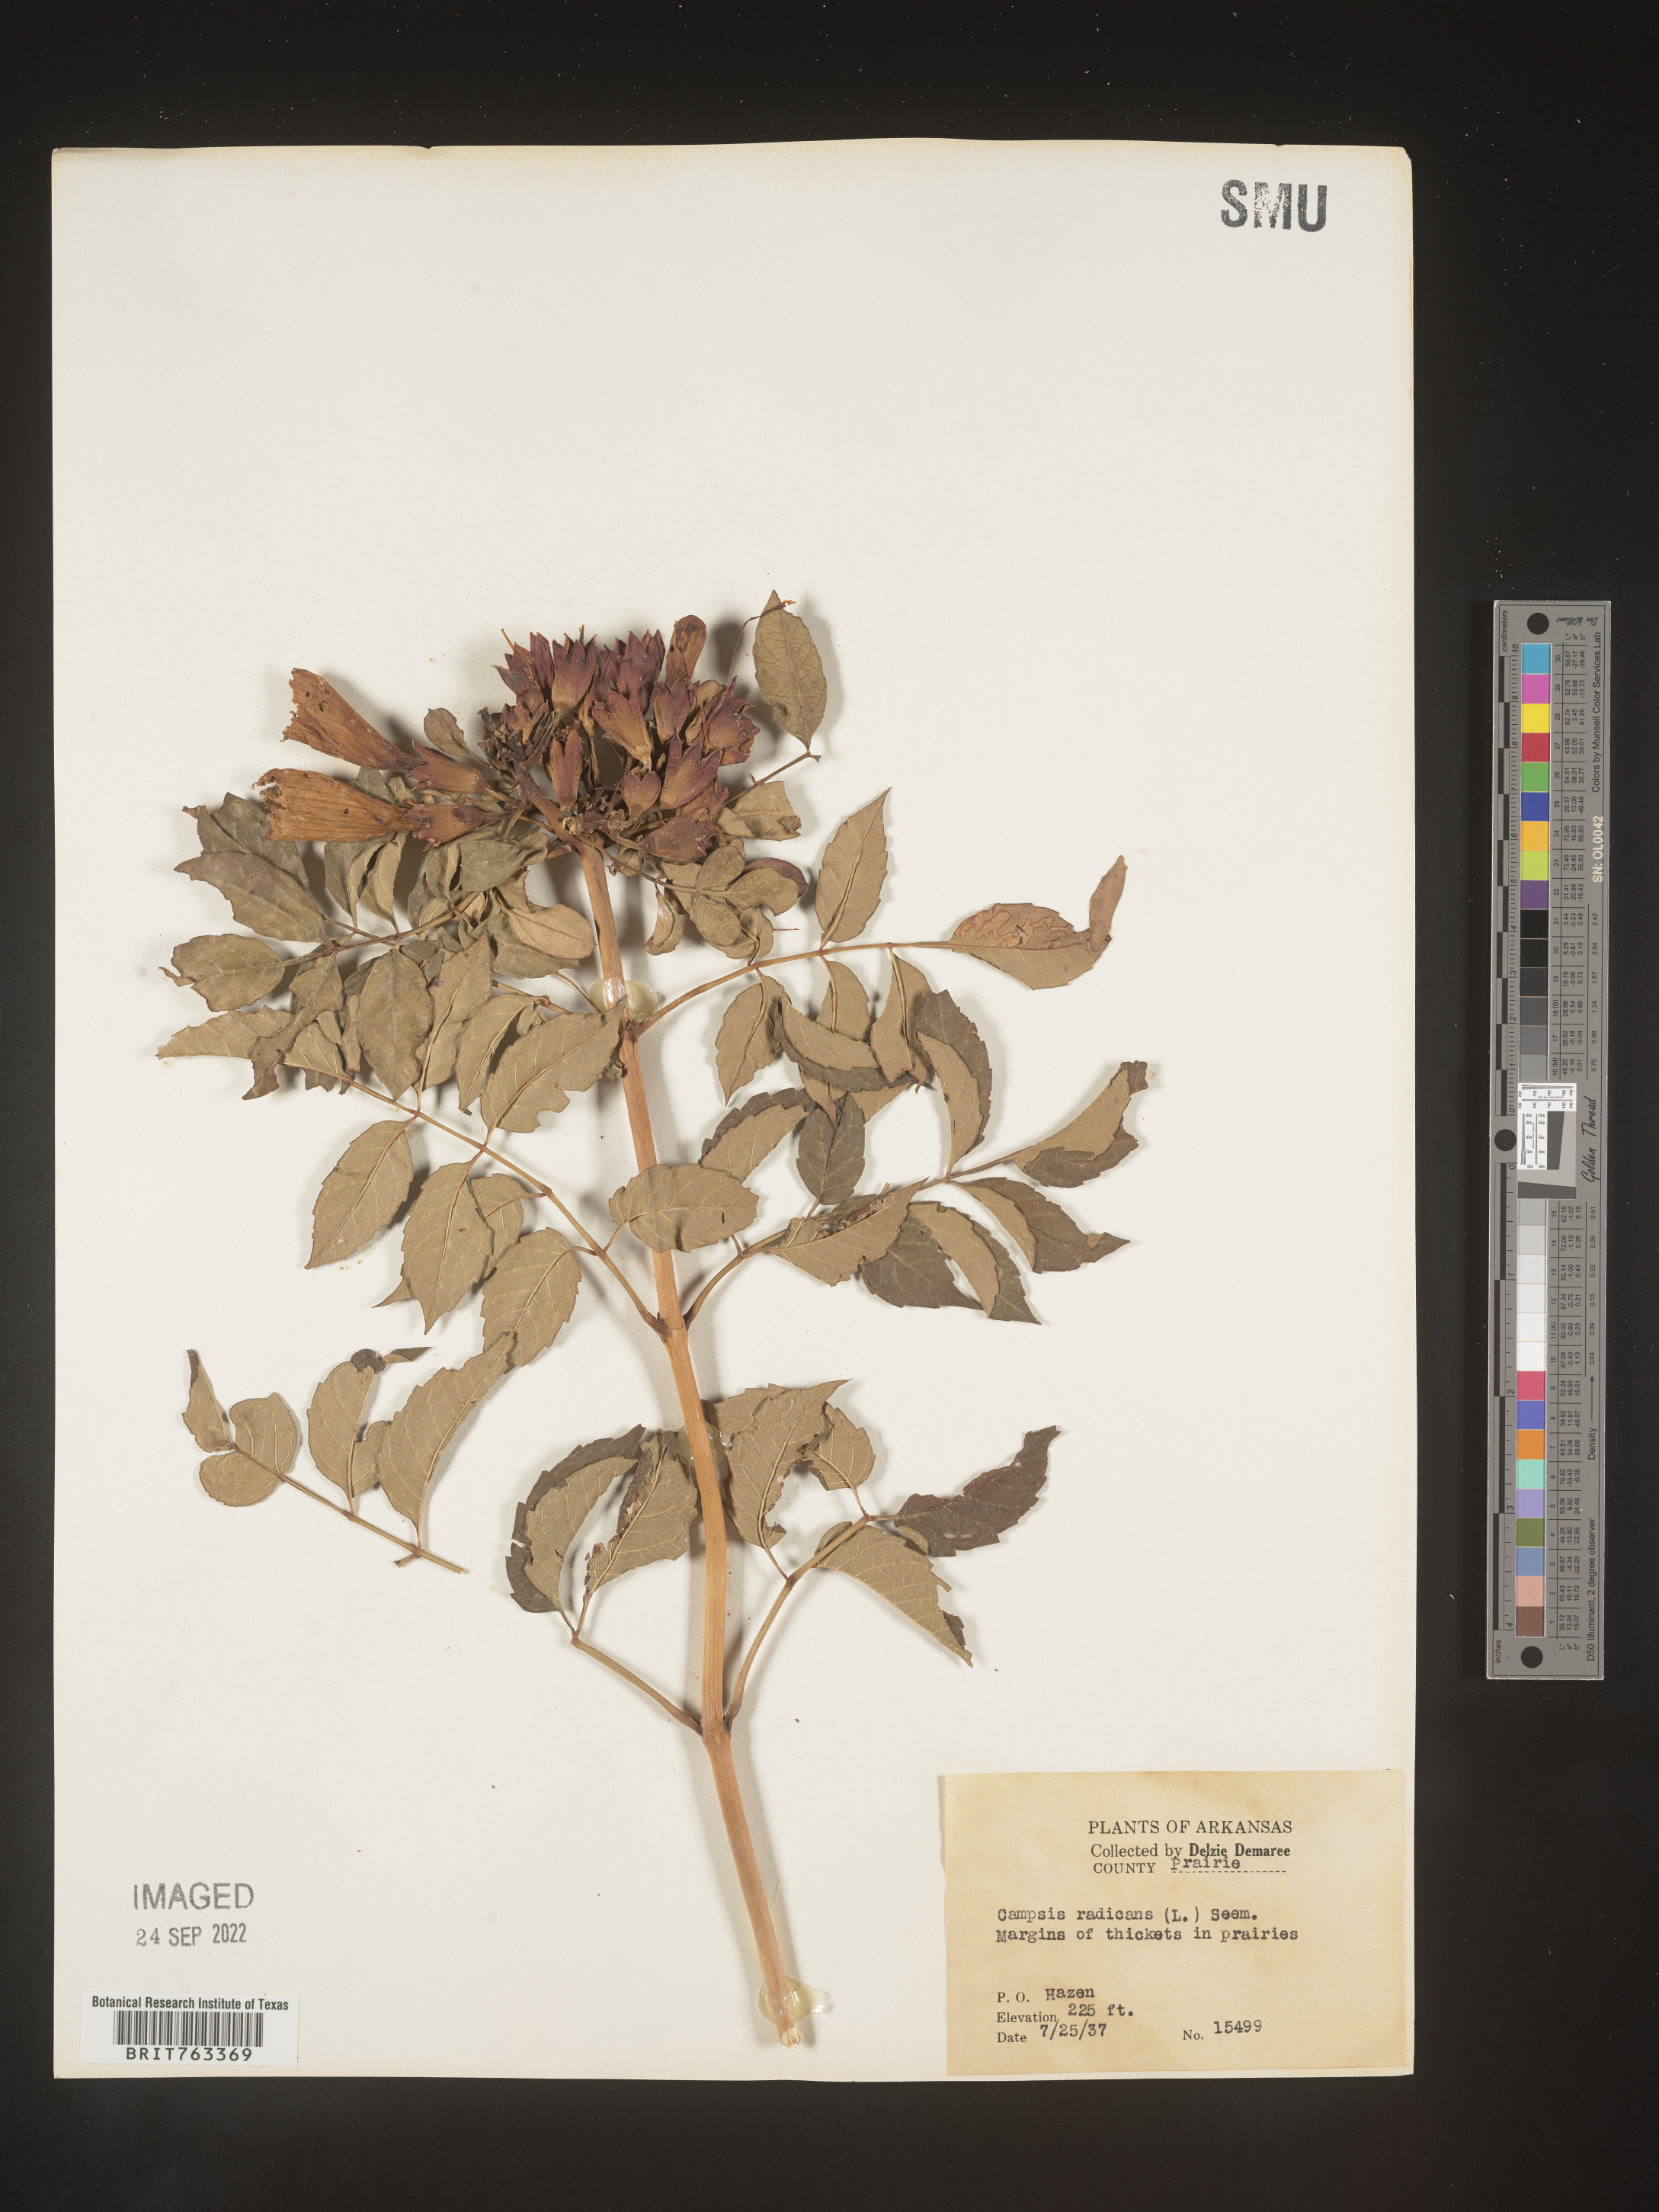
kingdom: Plantae
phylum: Tracheophyta
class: Magnoliopsida
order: Lamiales
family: Bignoniaceae
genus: Campsis
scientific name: Campsis radicans
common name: Trumpet-creeper
